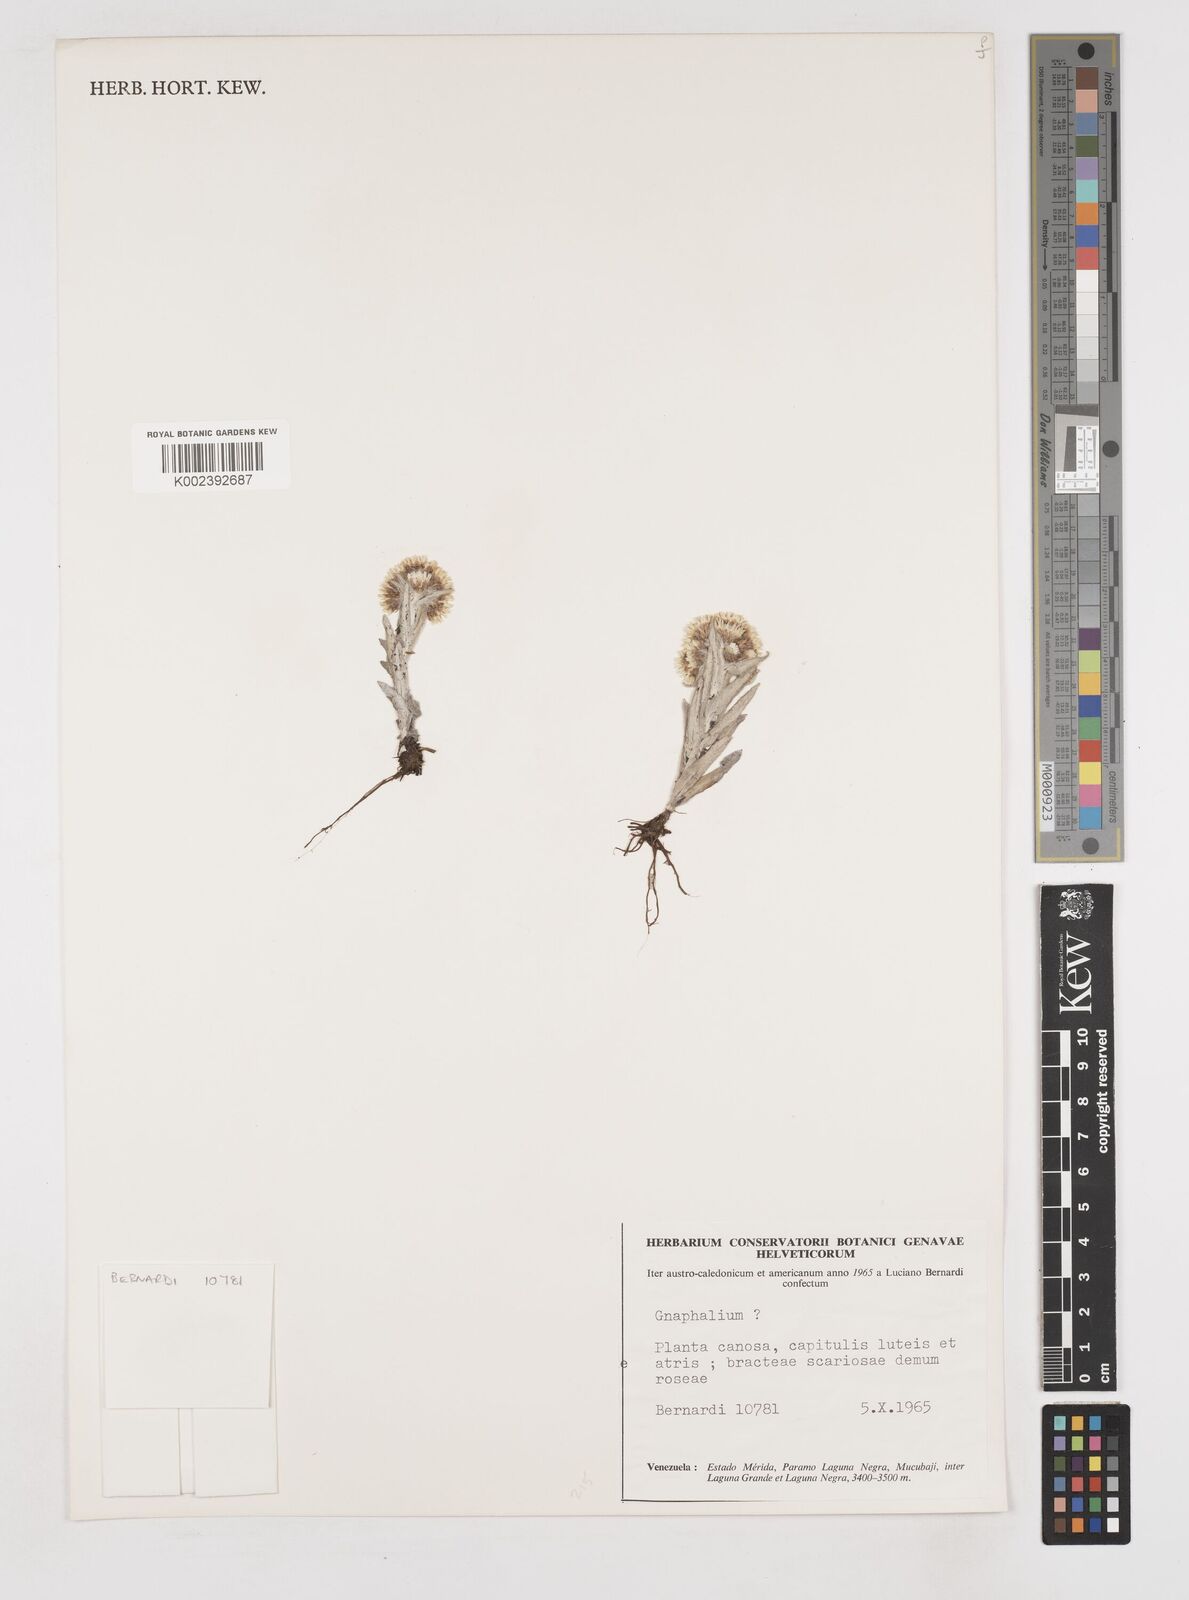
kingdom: Plantae
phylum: Tracheophyta
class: Magnoliopsida
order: Asterales
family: Asteraceae
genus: Gnaphalium
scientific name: Gnaphalium
